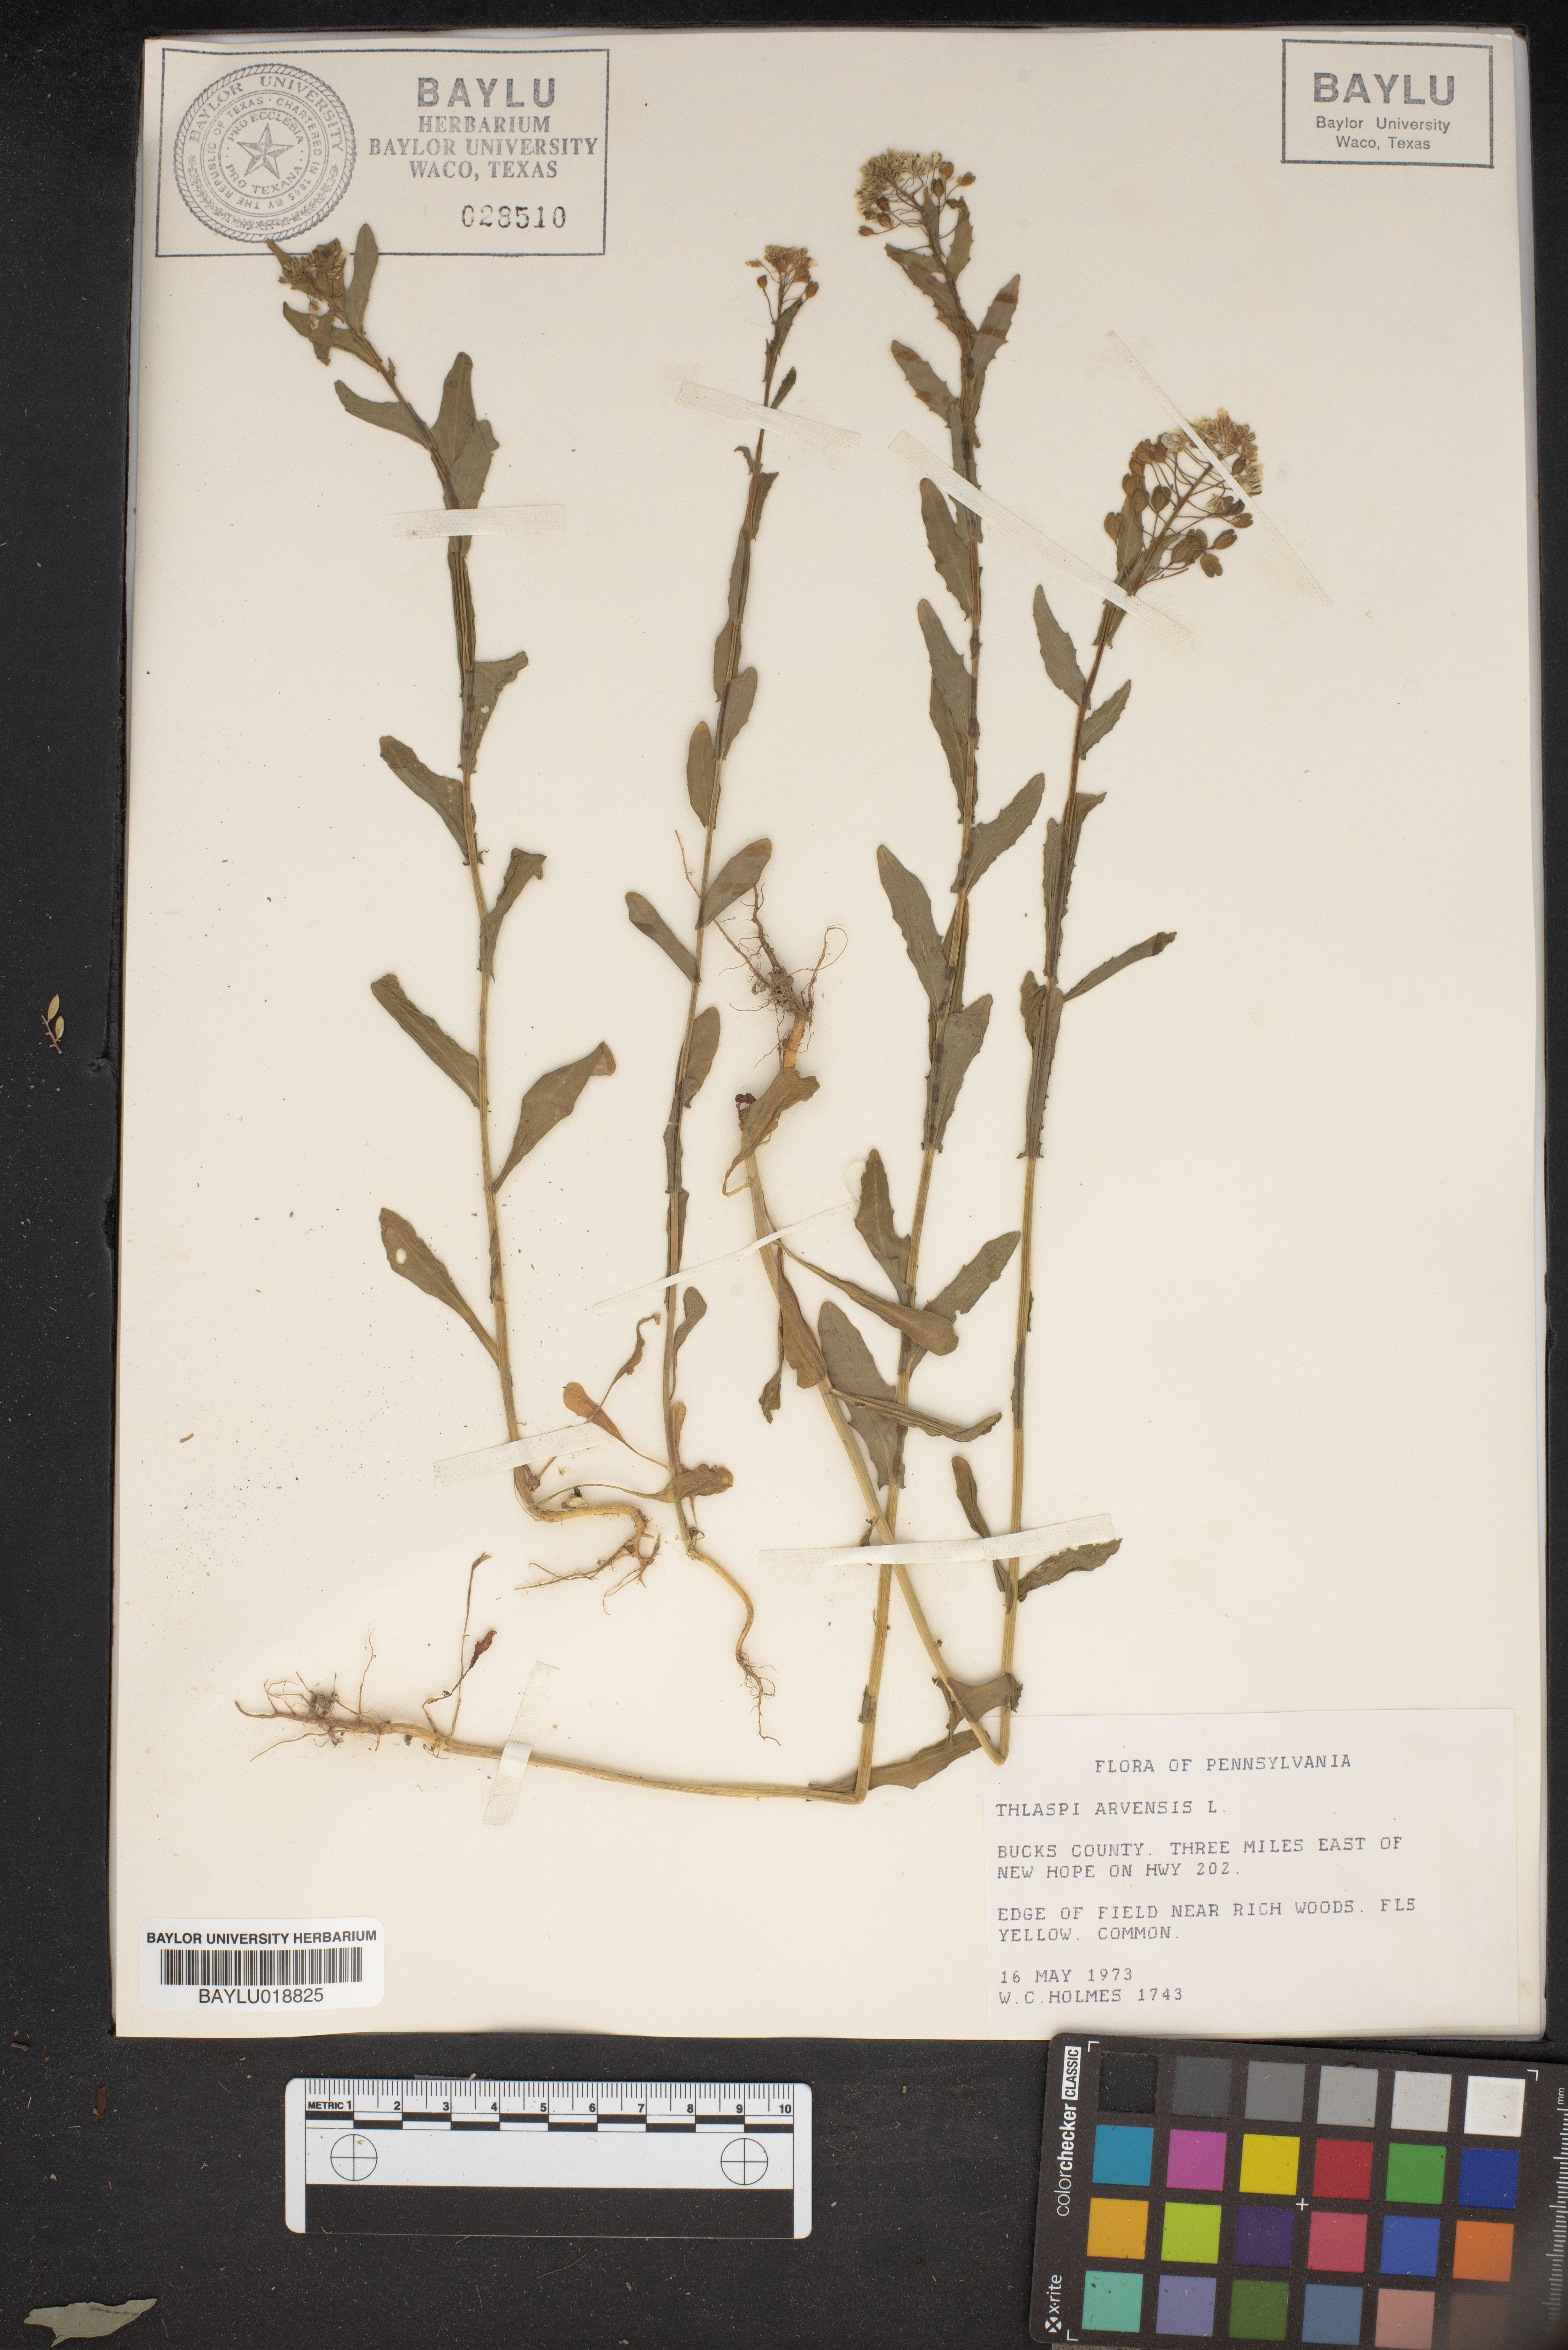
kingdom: Plantae
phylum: Tracheophyta
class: Magnoliopsida
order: Brassicales
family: Brassicaceae
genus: Thlaspi
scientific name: Thlaspi arvense
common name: Field pennycress
